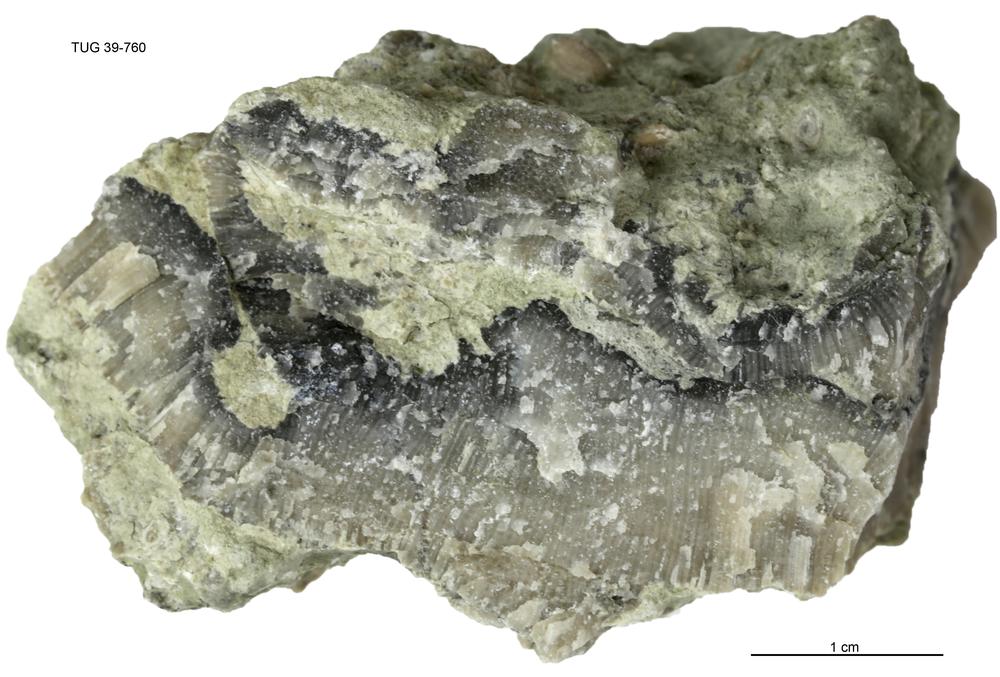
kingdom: Animalia
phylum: Bryozoa
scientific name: Bryozoa
